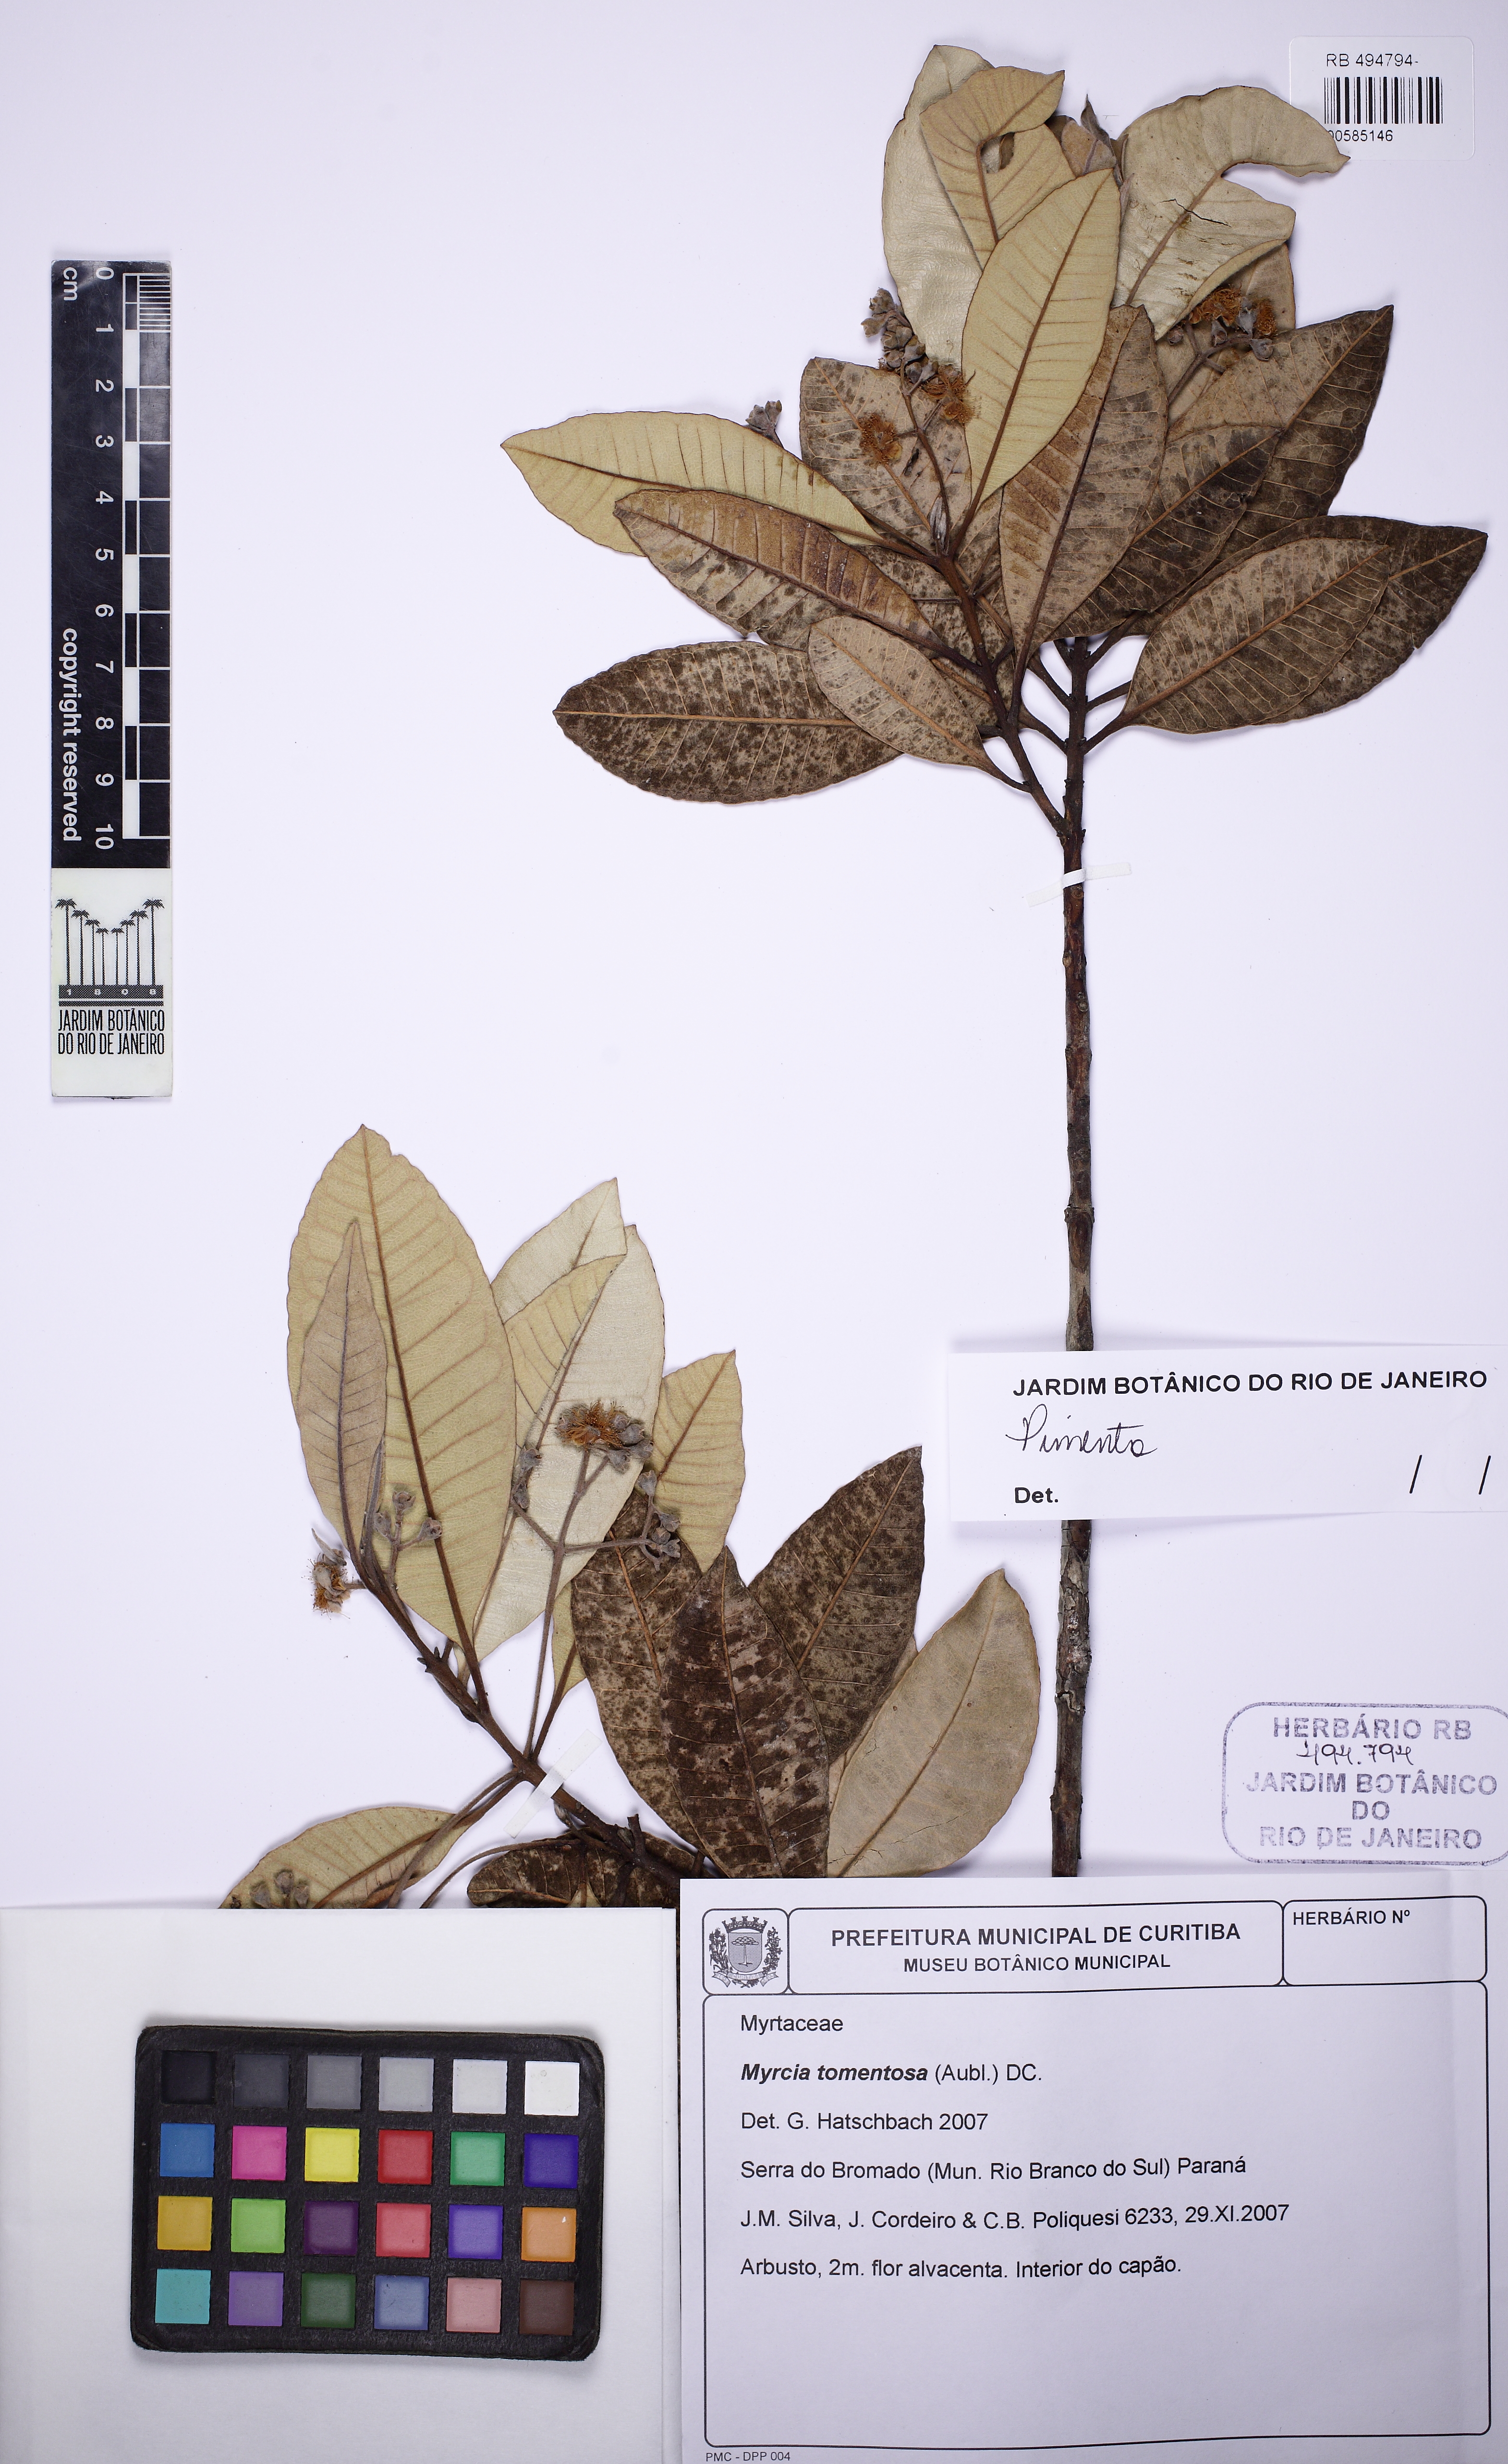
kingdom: Plantae
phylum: Tracheophyta
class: Magnoliopsida
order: Myrtales
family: Myrtaceae
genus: Pimenta
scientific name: Pimenta pseudocaryophyllus
